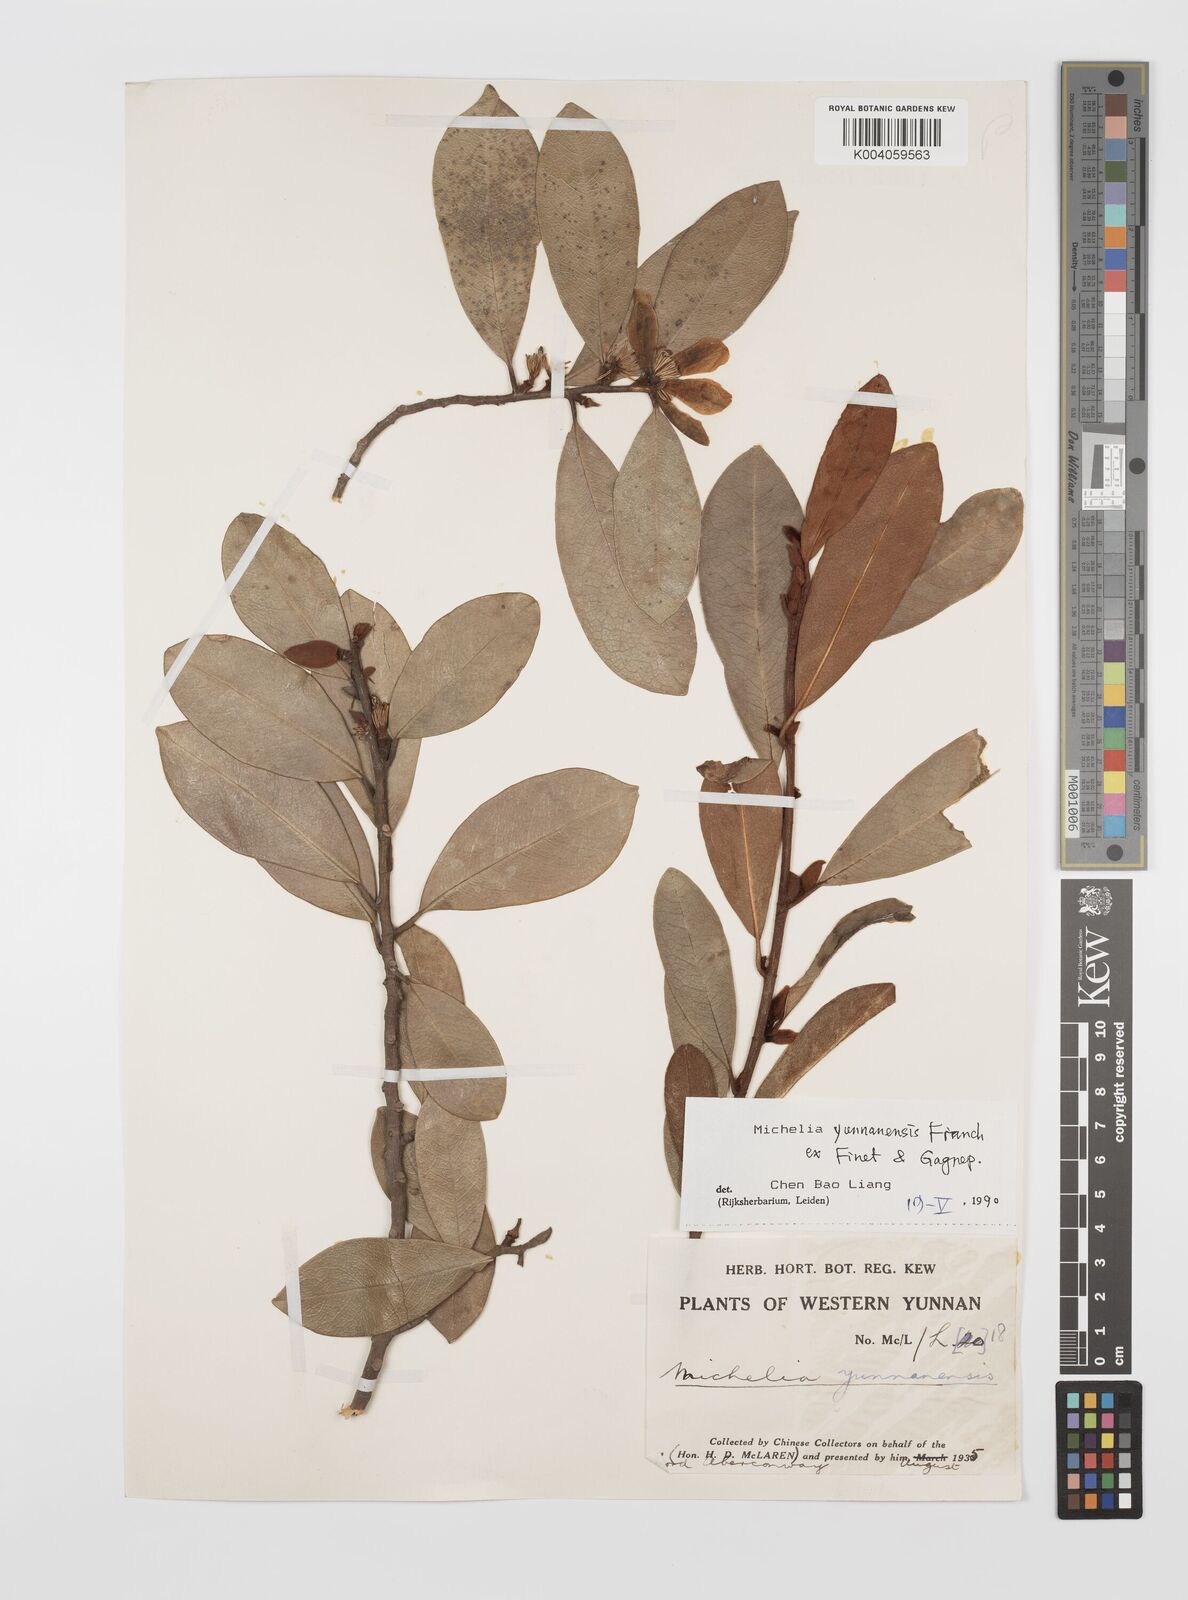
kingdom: Plantae
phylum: Tracheophyta
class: Magnoliopsida
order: Magnoliales
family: Magnoliaceae
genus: Magnolia
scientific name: Magnolia laevifolia
